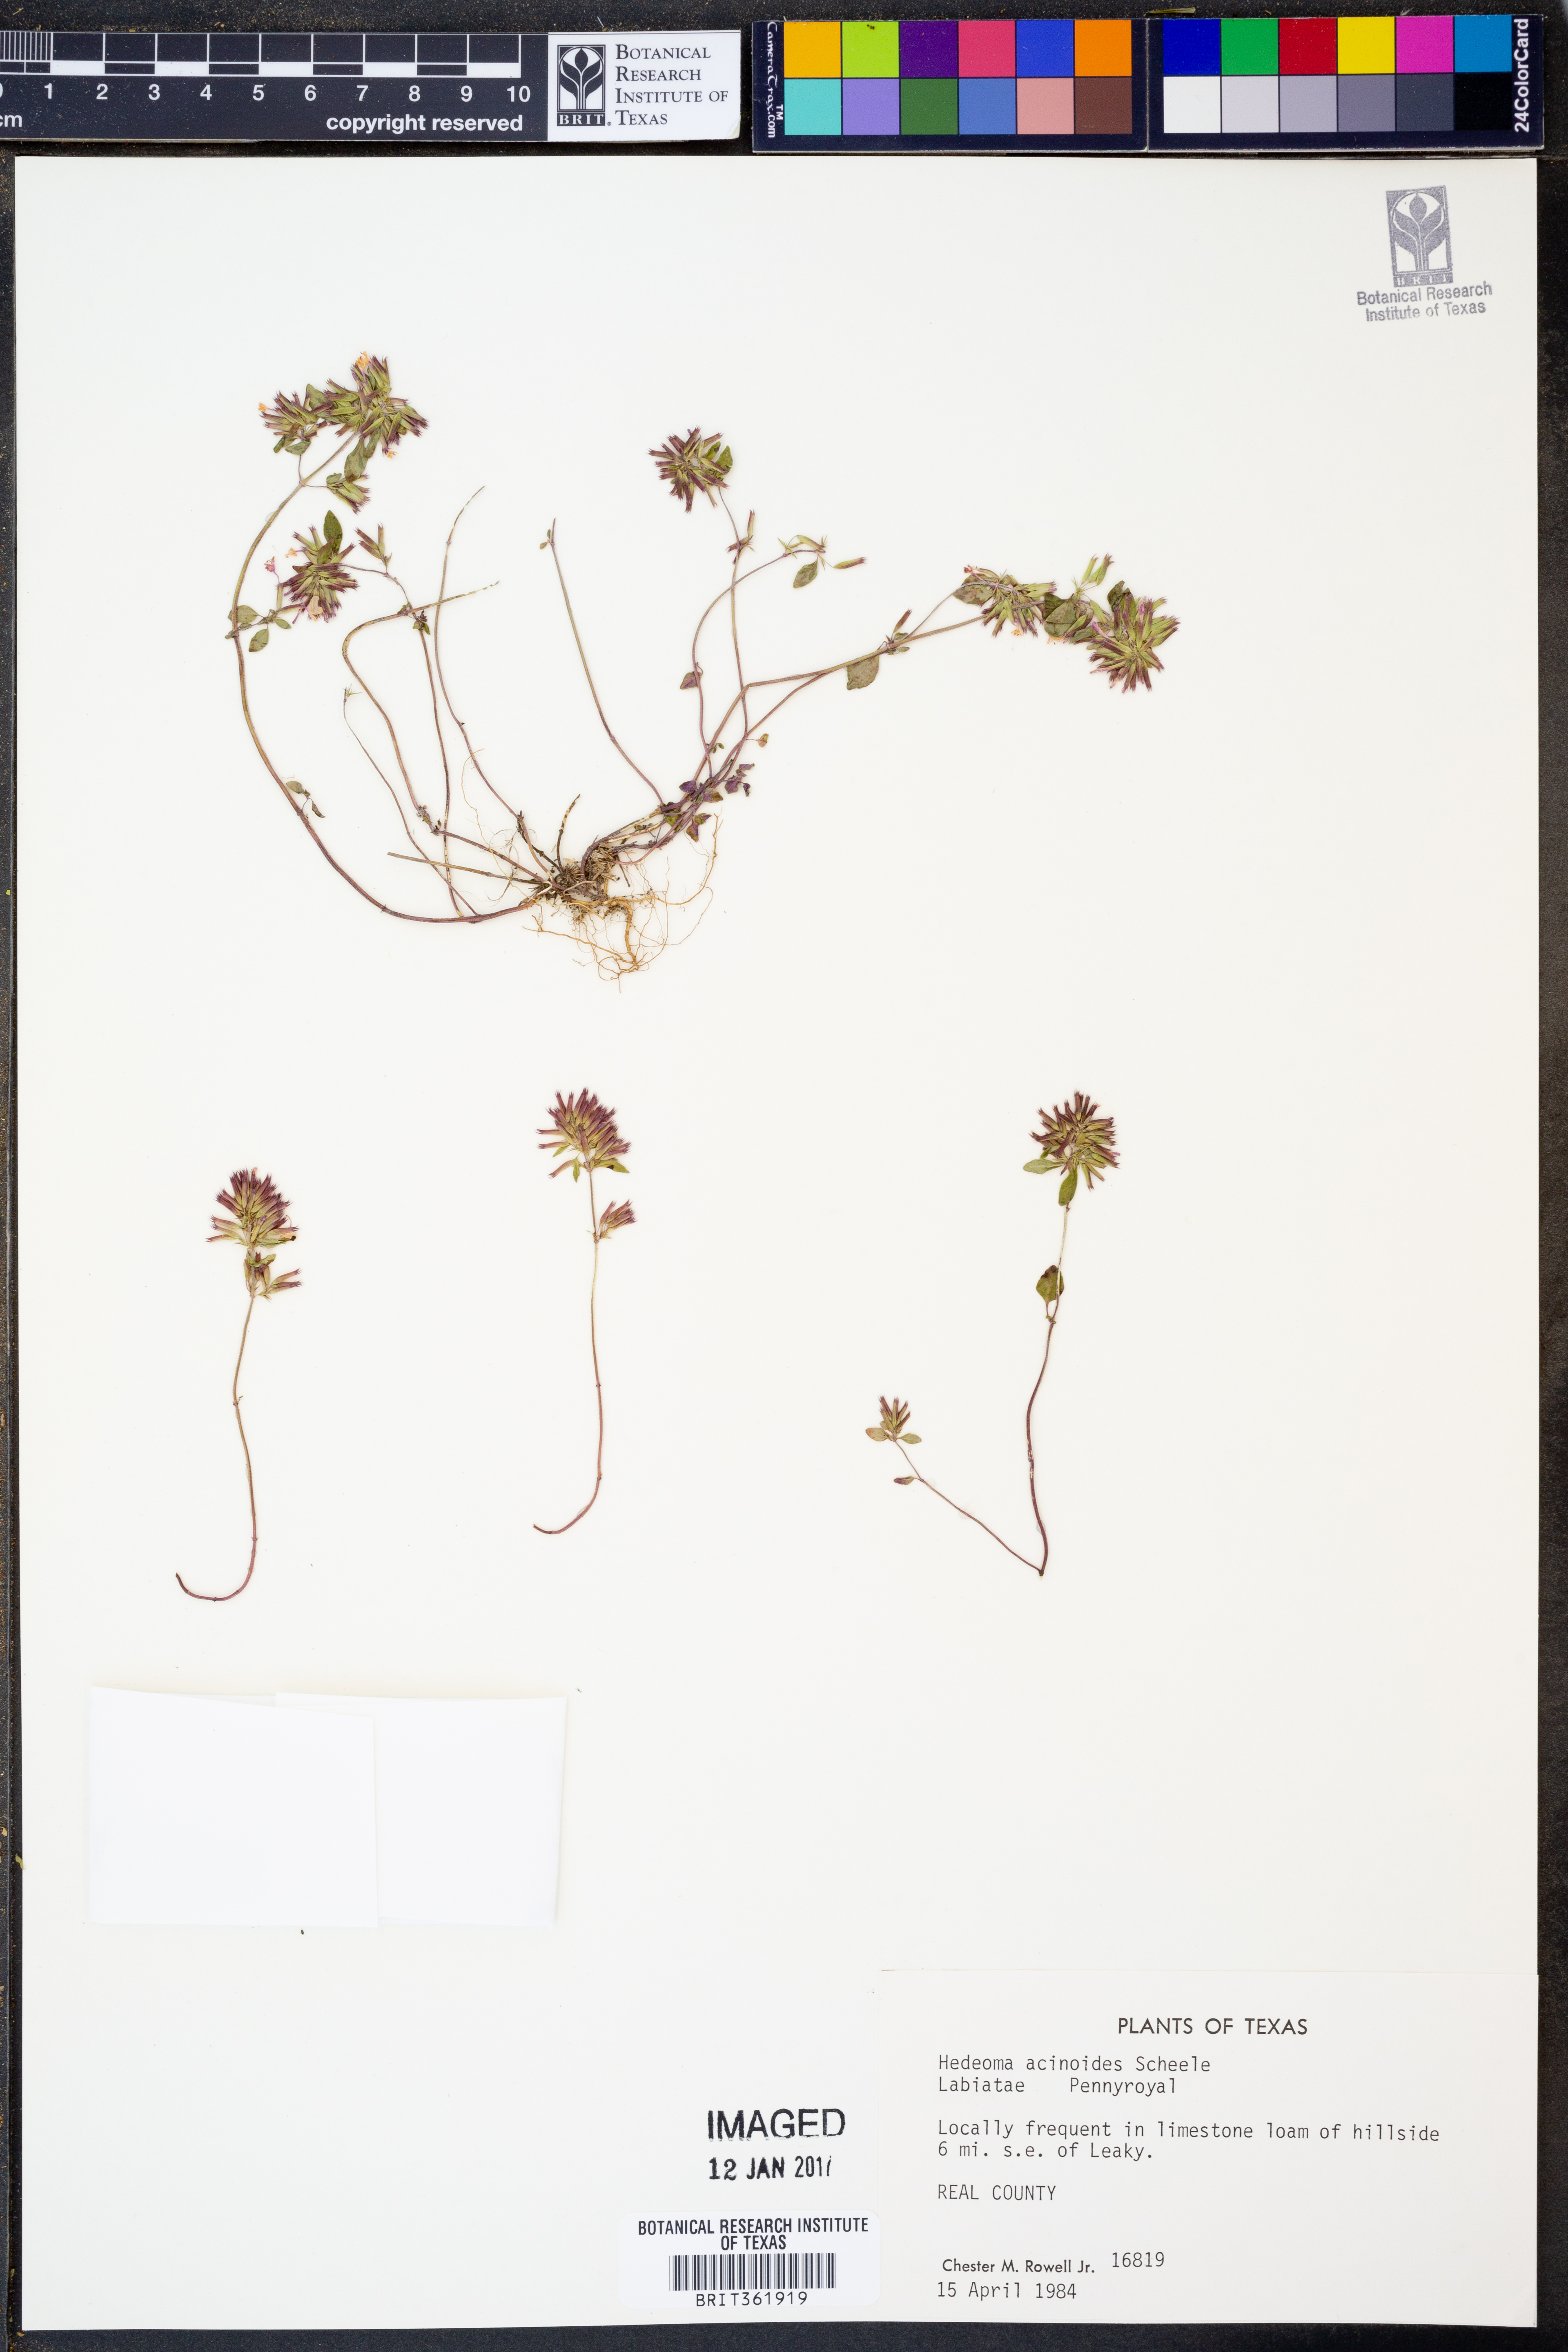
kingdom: Plantae
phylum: Tracheophyta
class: Magnoliopsida
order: Lamiales
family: Lamiaceae
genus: Hedeoma
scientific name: Hedeoma acinoides
